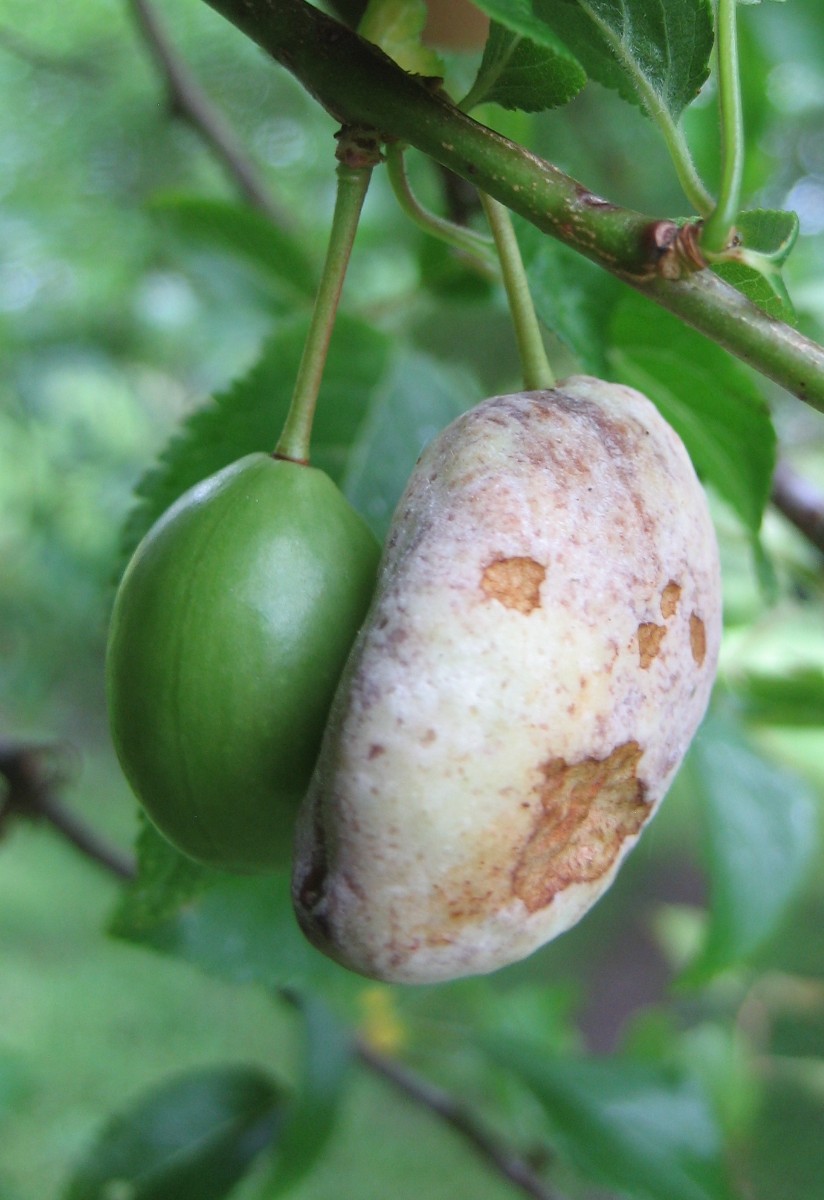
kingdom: Fungi
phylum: Ascomycota
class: Taphrinomycetes
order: Taphrinales
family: Taphrinaceae
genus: Taphrina
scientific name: Taphrina pruni
